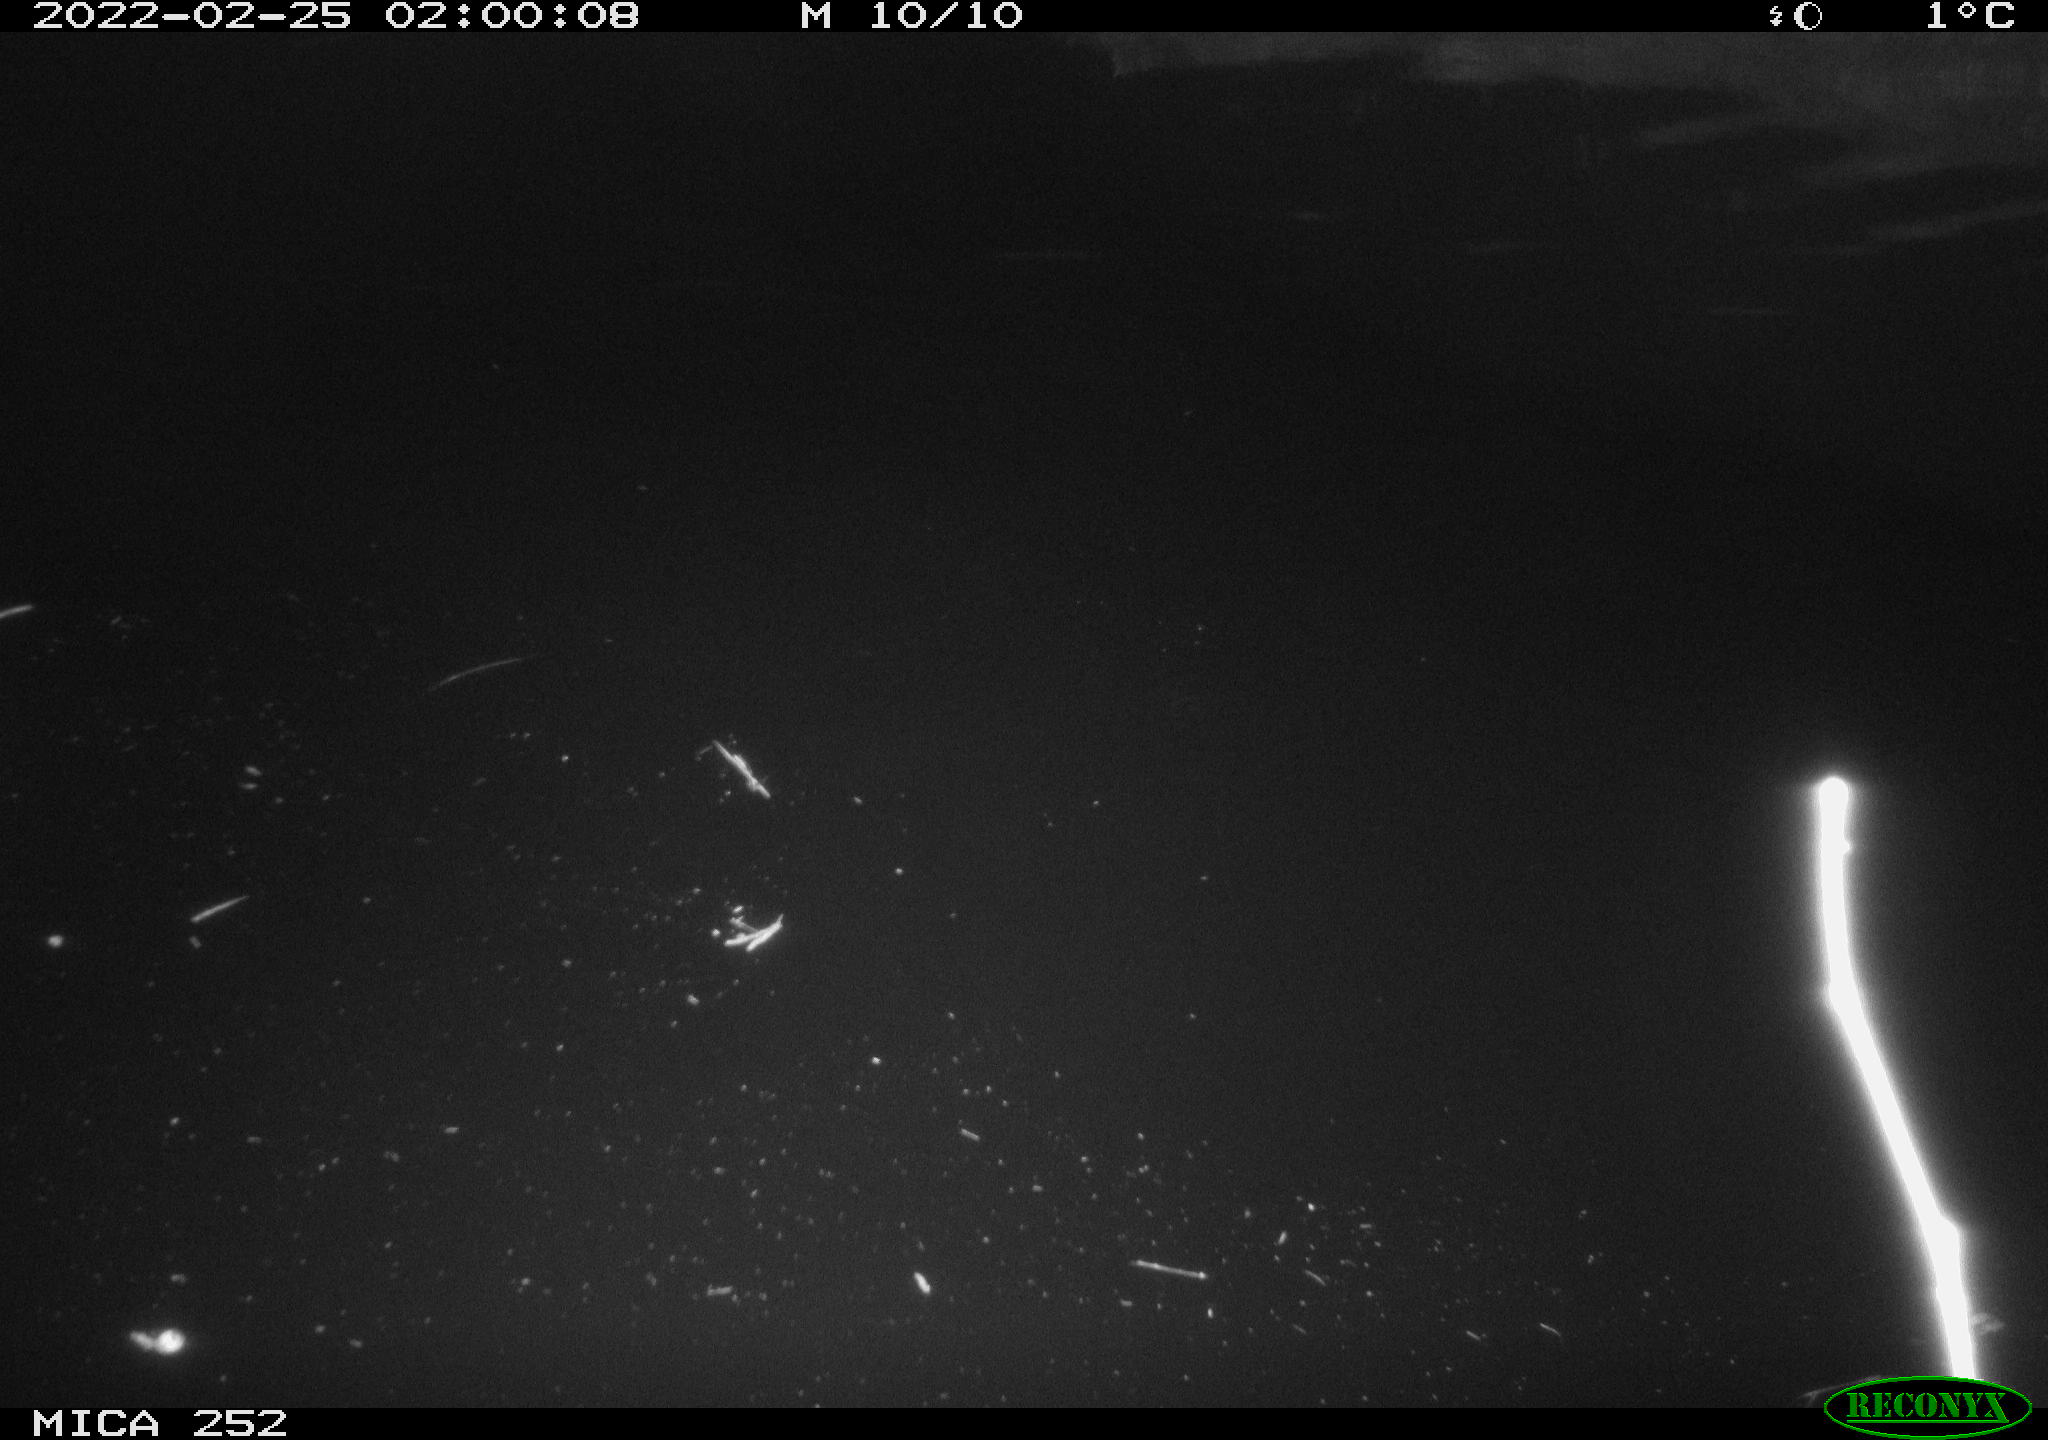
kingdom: Animalia
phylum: Chordata
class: Mammalia
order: Rodentia
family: Castoridae
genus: Castor
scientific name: Castor fiber
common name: Eurasian beaver
